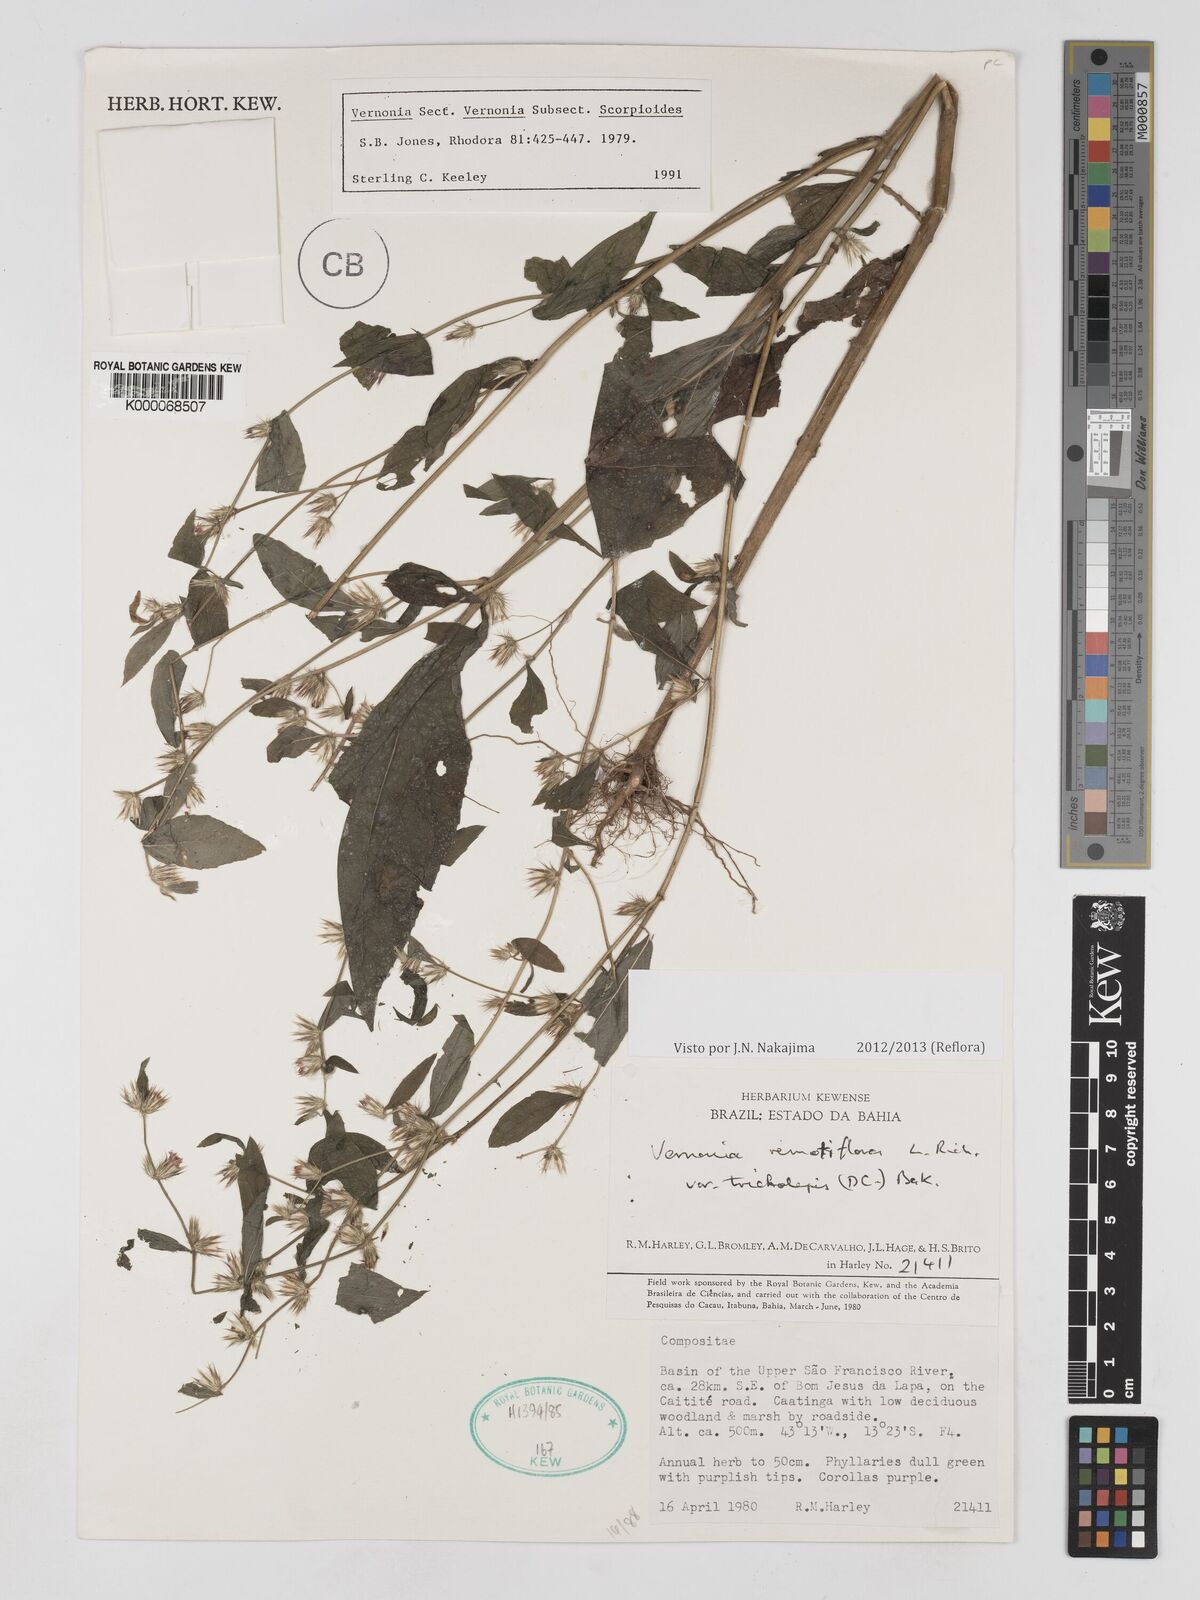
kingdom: Plantae
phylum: Tracheophyta
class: Magnoliopsida
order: Asterales
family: Asteraceae
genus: Lepidaploa
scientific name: Lepidaploa remotiflora
